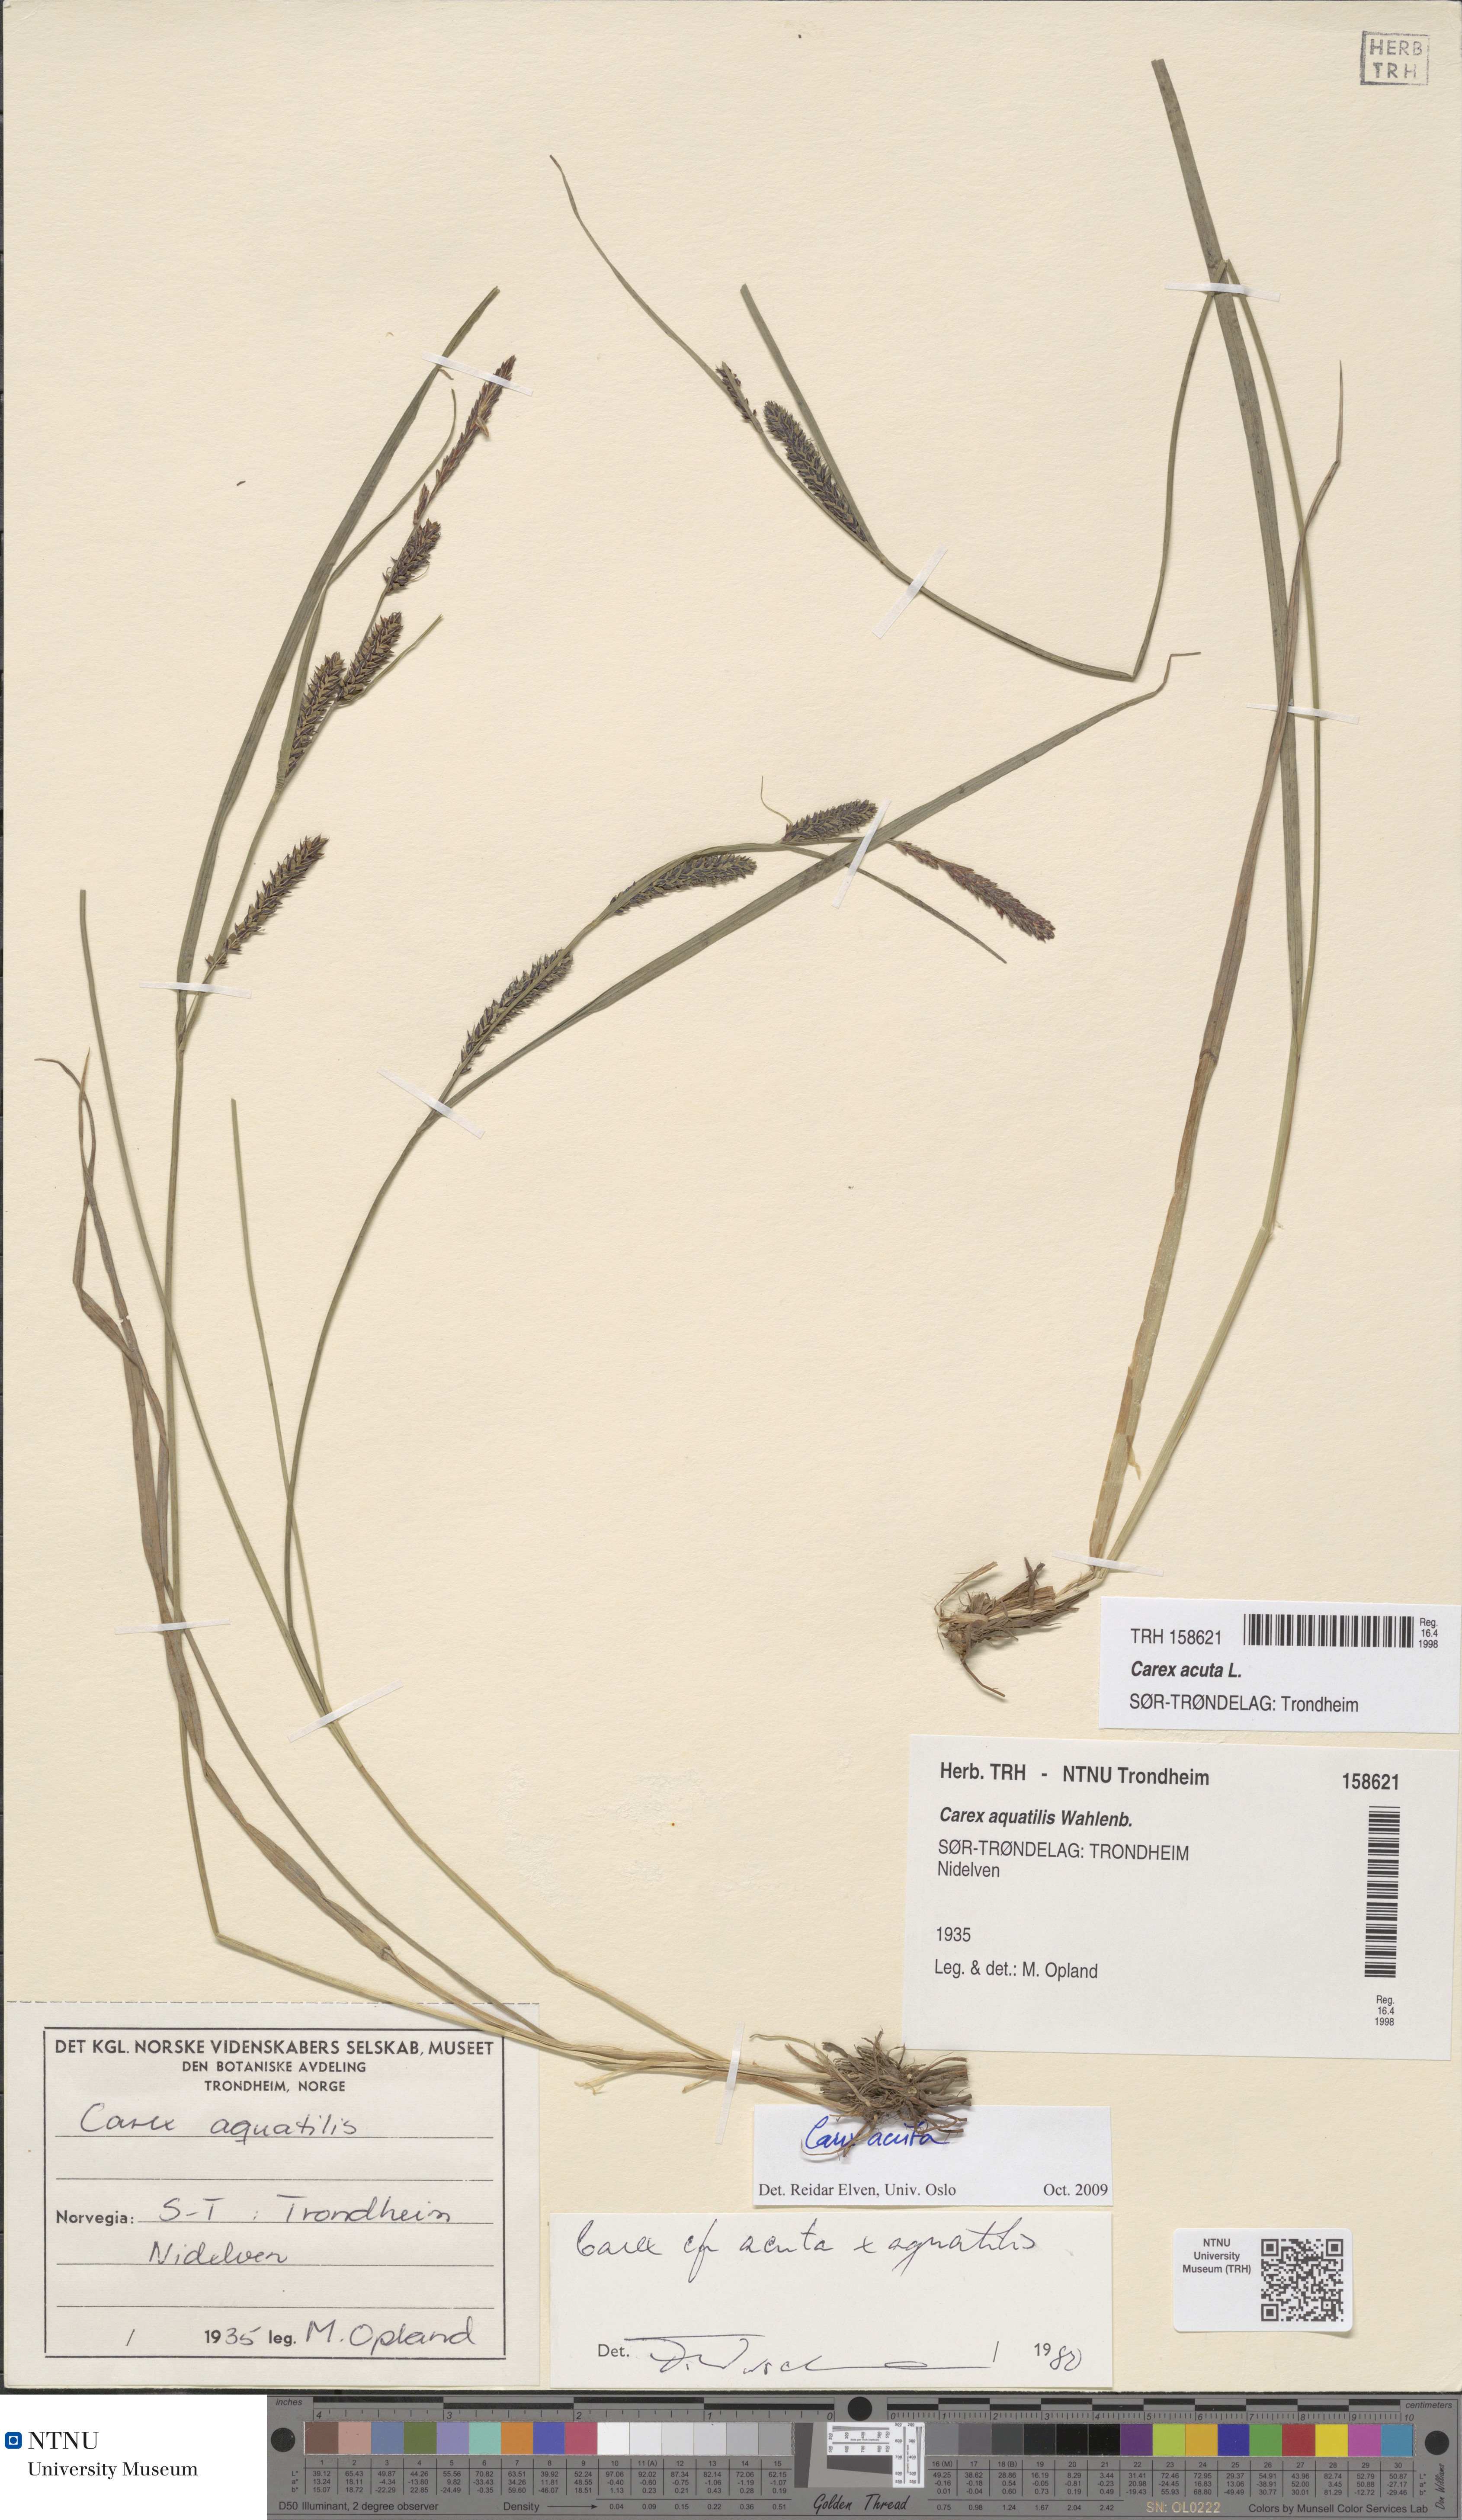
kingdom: Plantae
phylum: Tracheophyta
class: Liliopsida
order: Poales
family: Cyperaceae
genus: Carex
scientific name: Carex acuta
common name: Slender tufted-sedge
